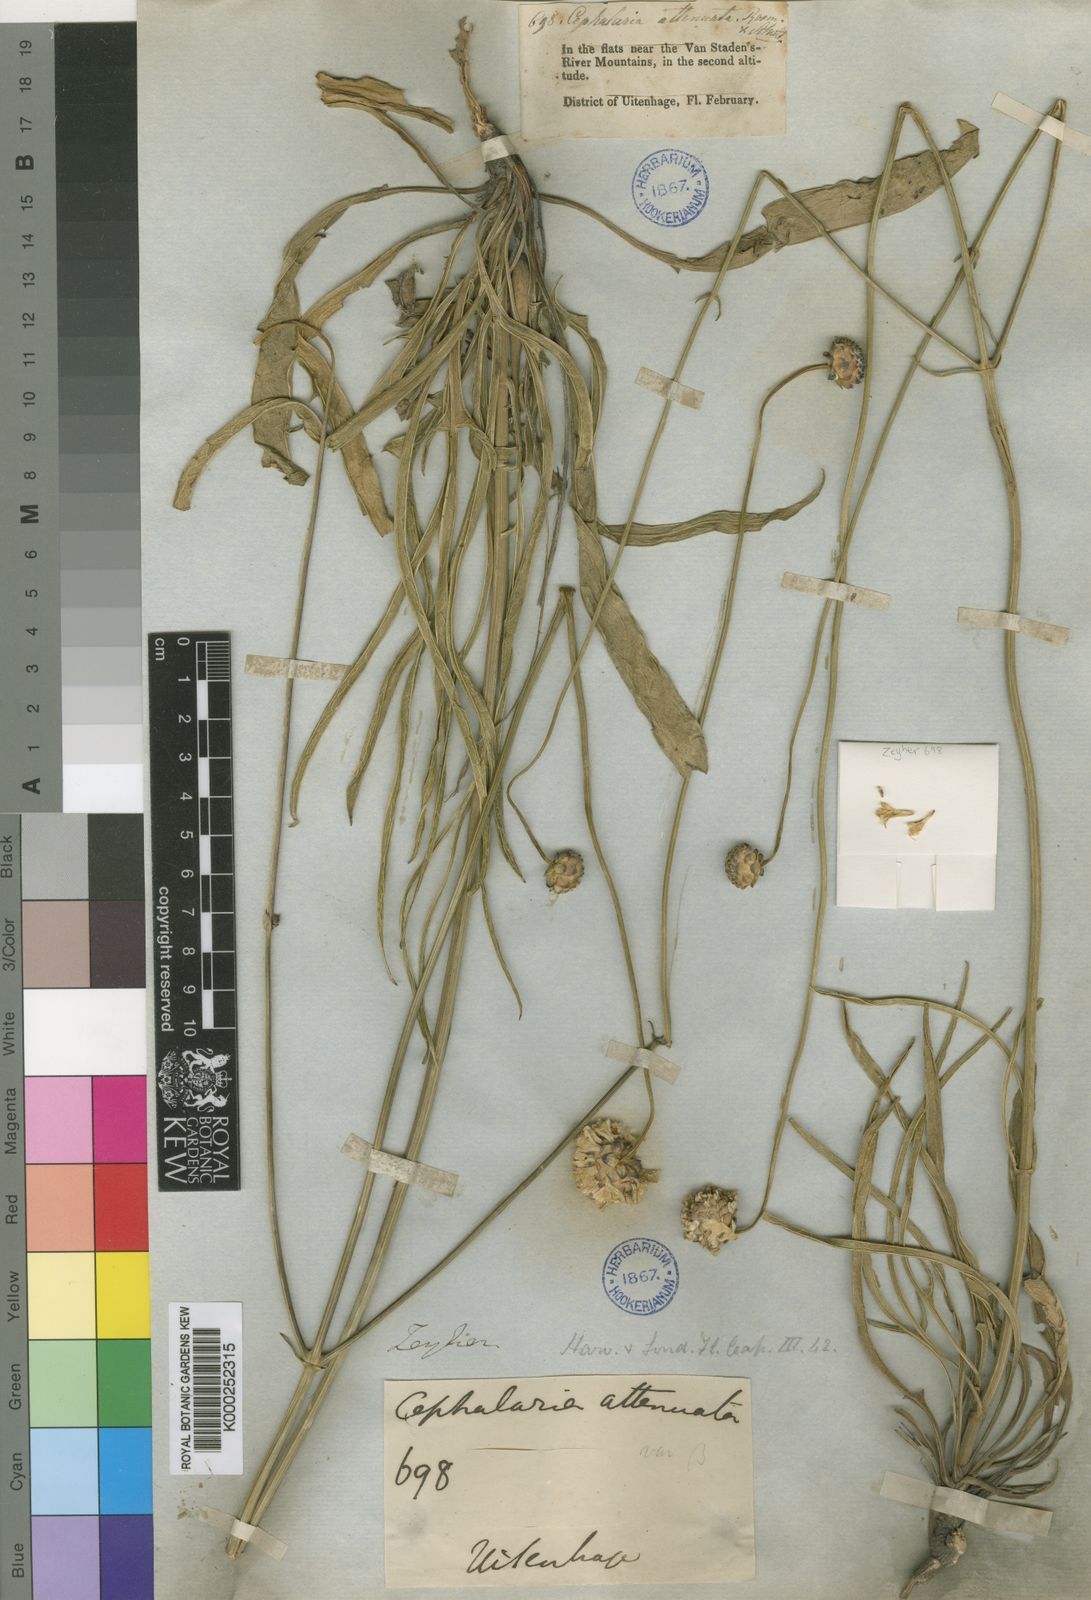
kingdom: Plantae
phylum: Tracheophyta
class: Magnoliopsida
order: Dipsacales
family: Caprifoliaceae
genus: Cephalaria
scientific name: Cephalaria humilis
